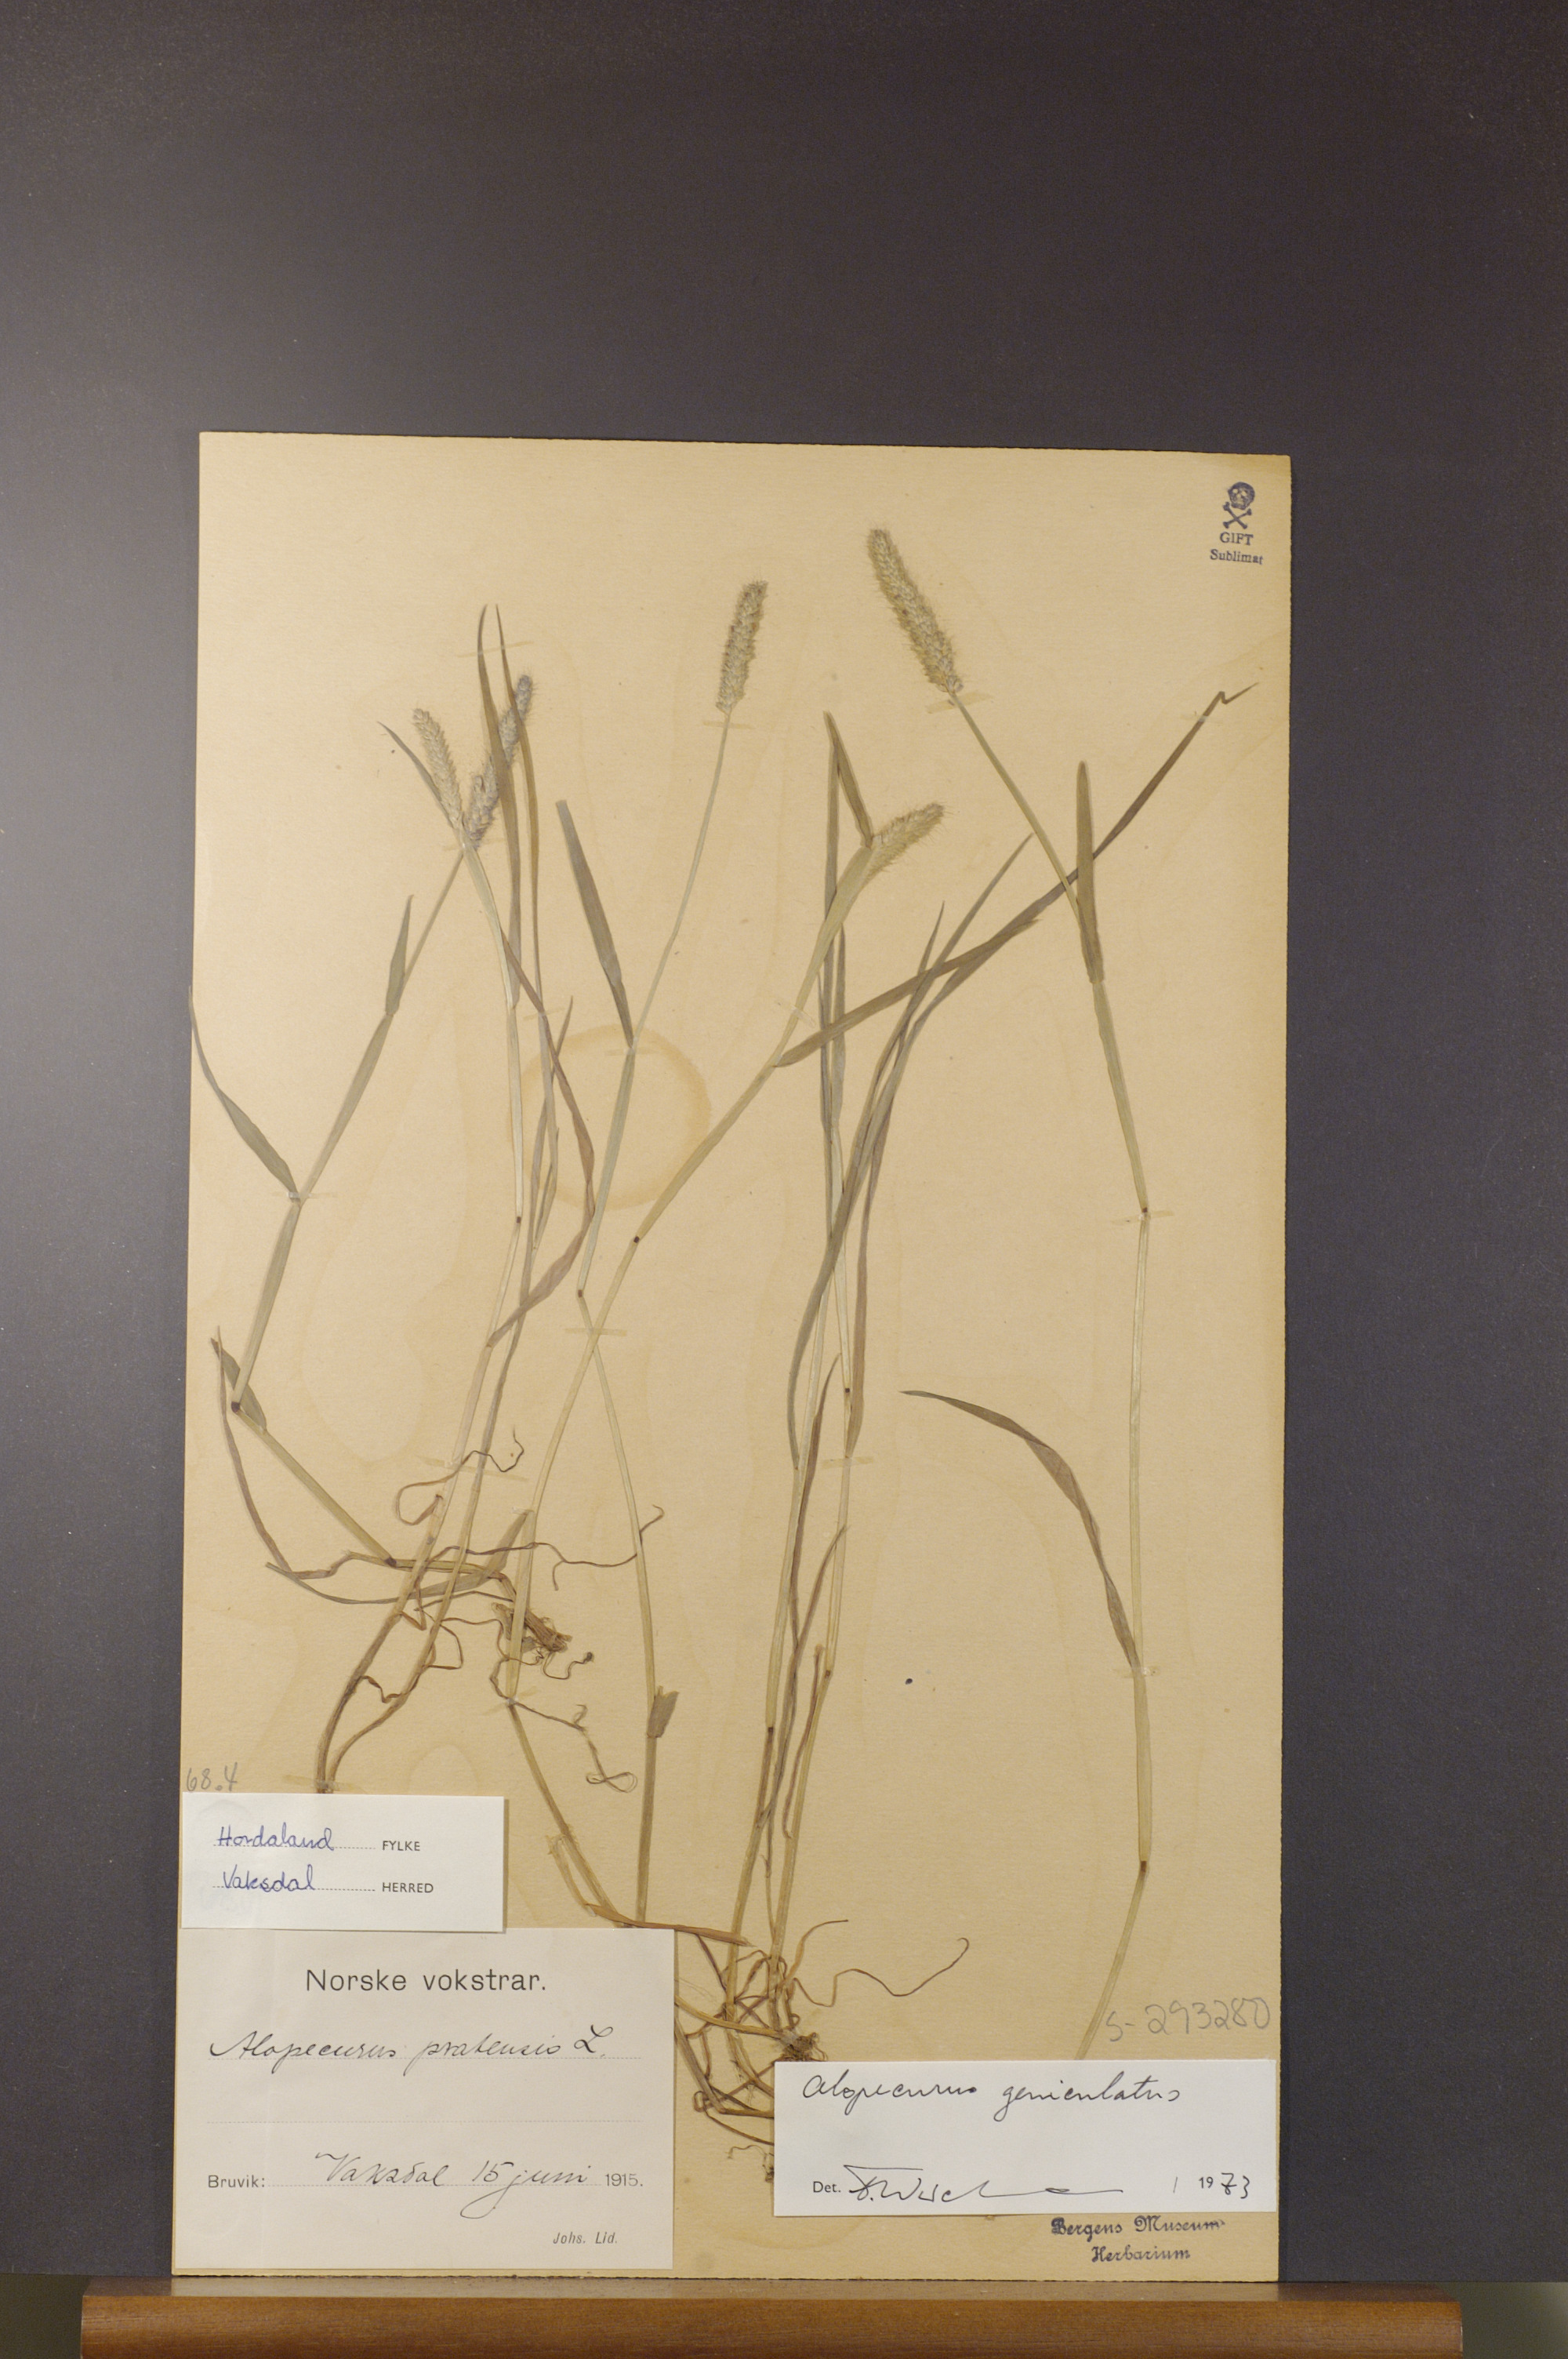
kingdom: Plantae
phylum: Tracheophyta
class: Liliopsida
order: Poales
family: Poaceae
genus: Alopecurus
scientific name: Alopecurus geniculatus
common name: Water foxtail
